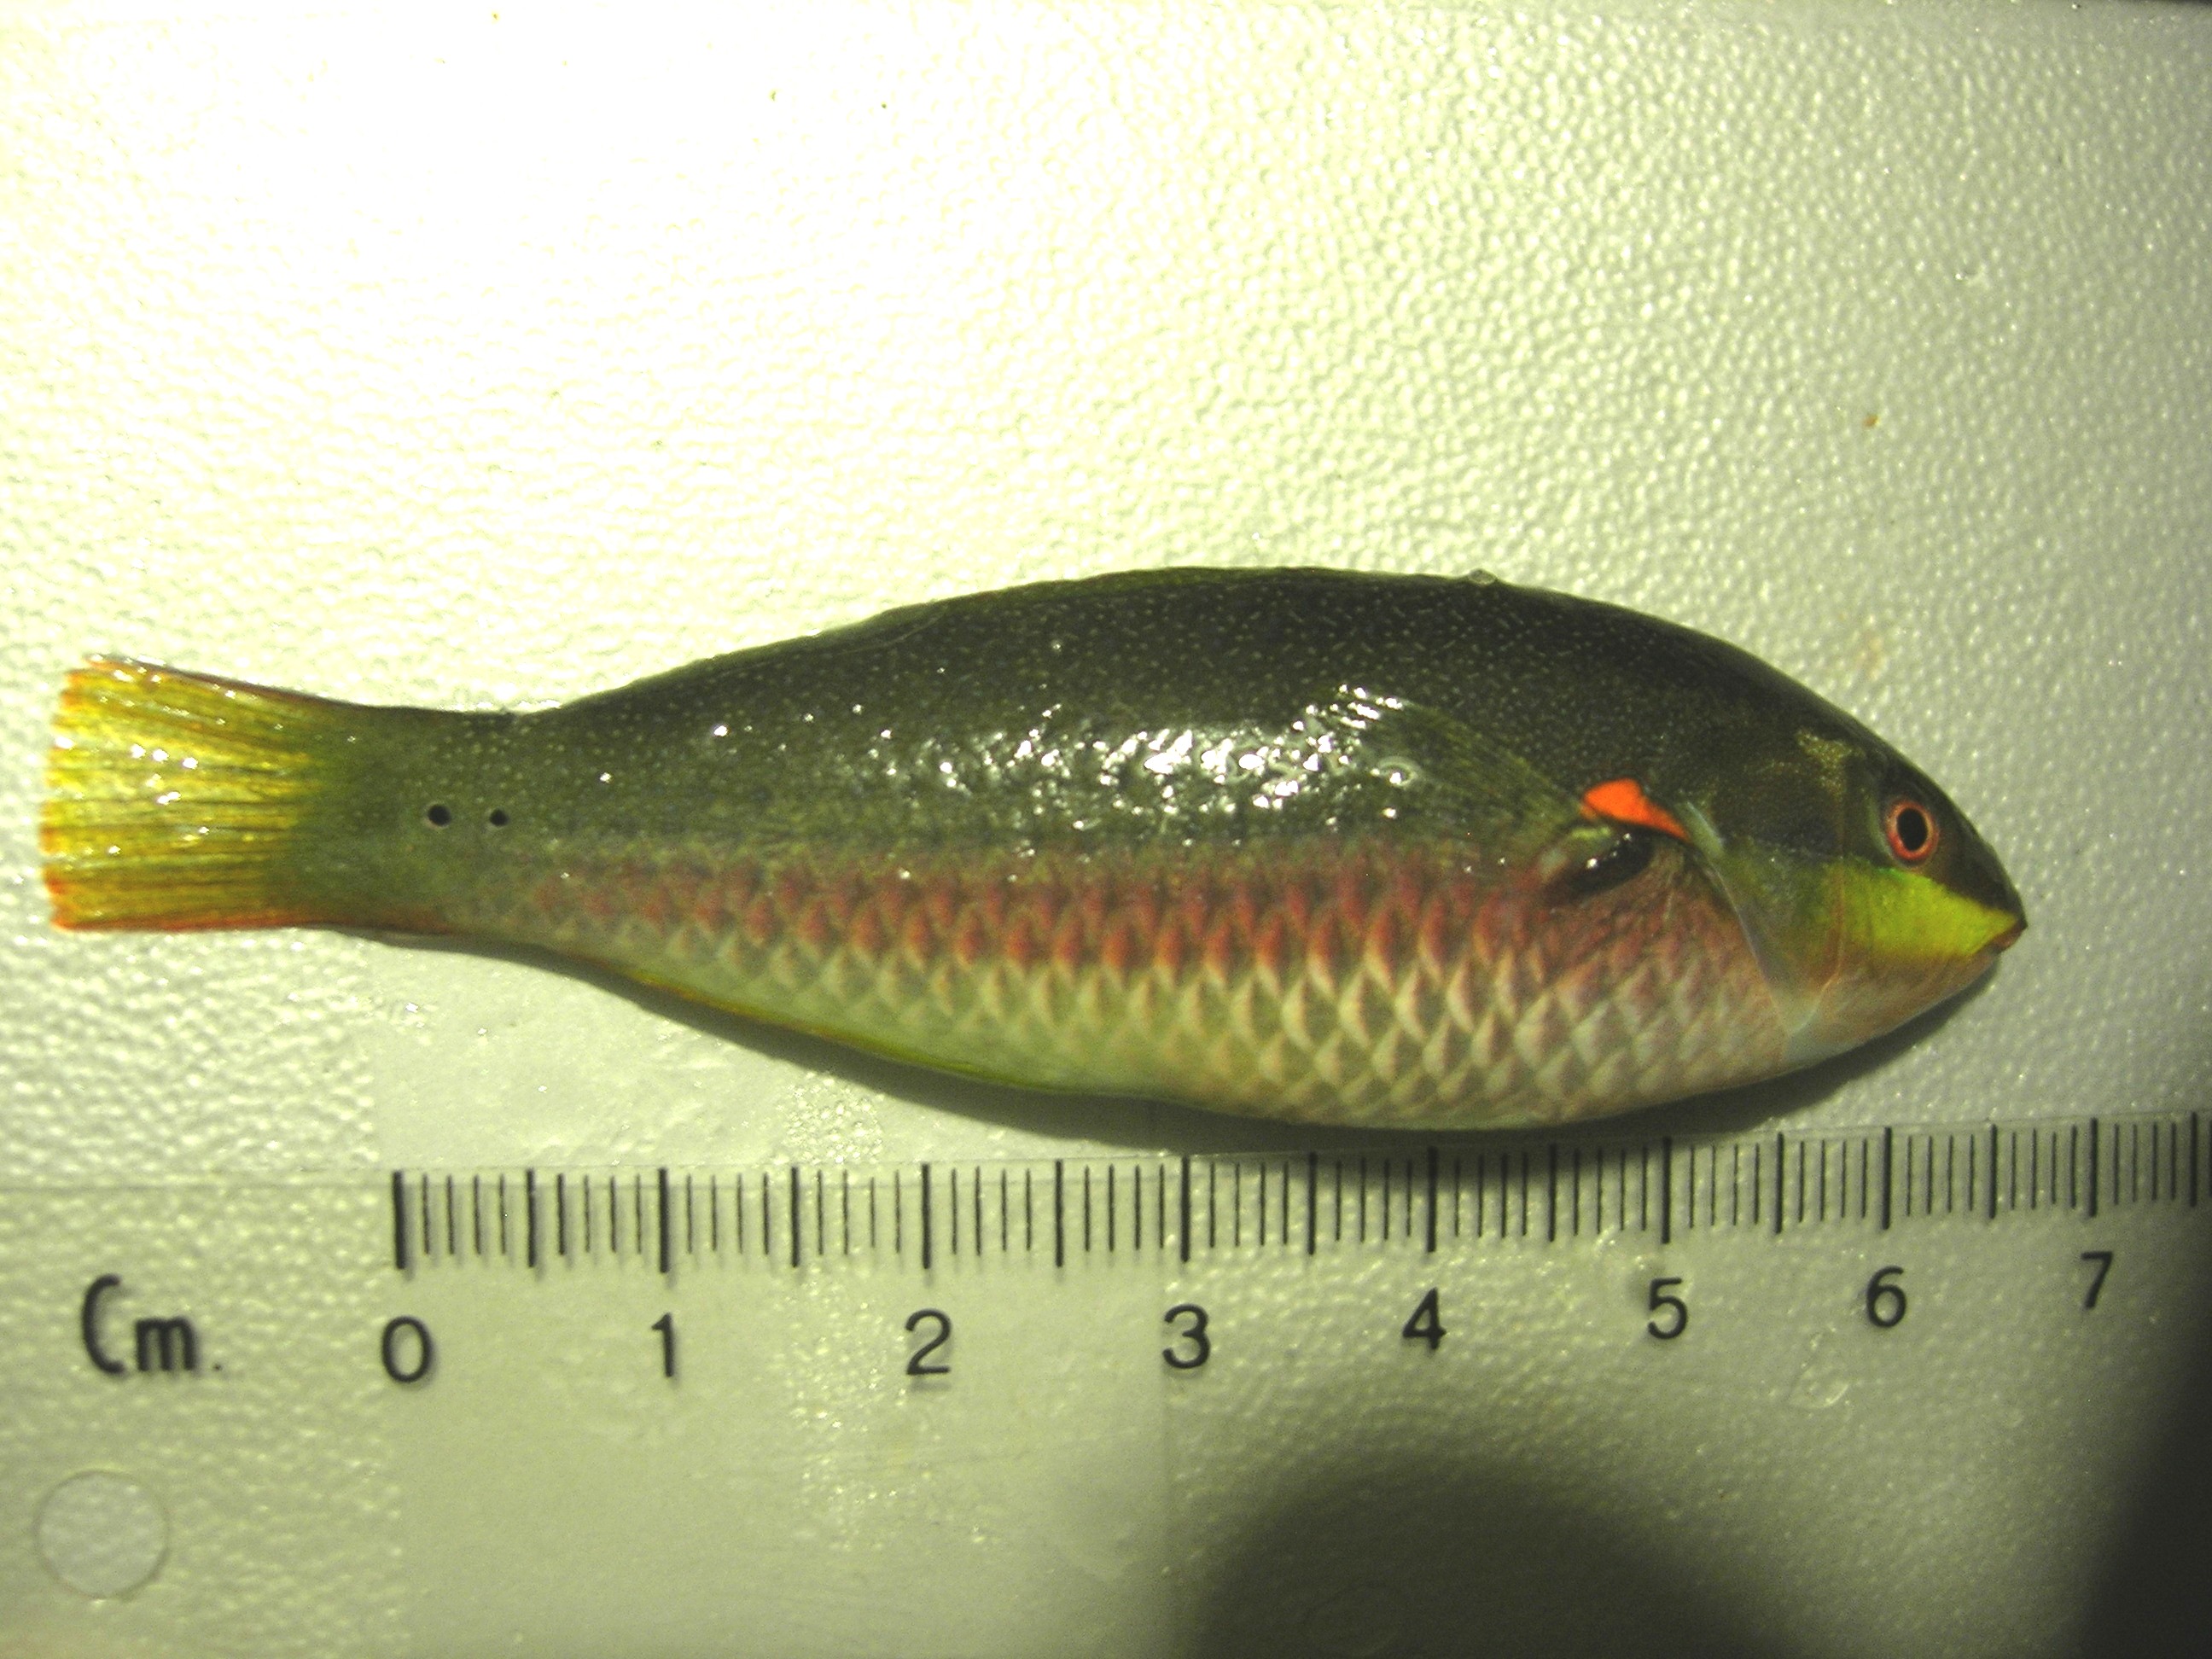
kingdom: Animalia
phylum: Chordata
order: Perciformes
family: Labridae
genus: Stethojulis
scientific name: Stethojulis albovittata
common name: Bluelined wrasse
